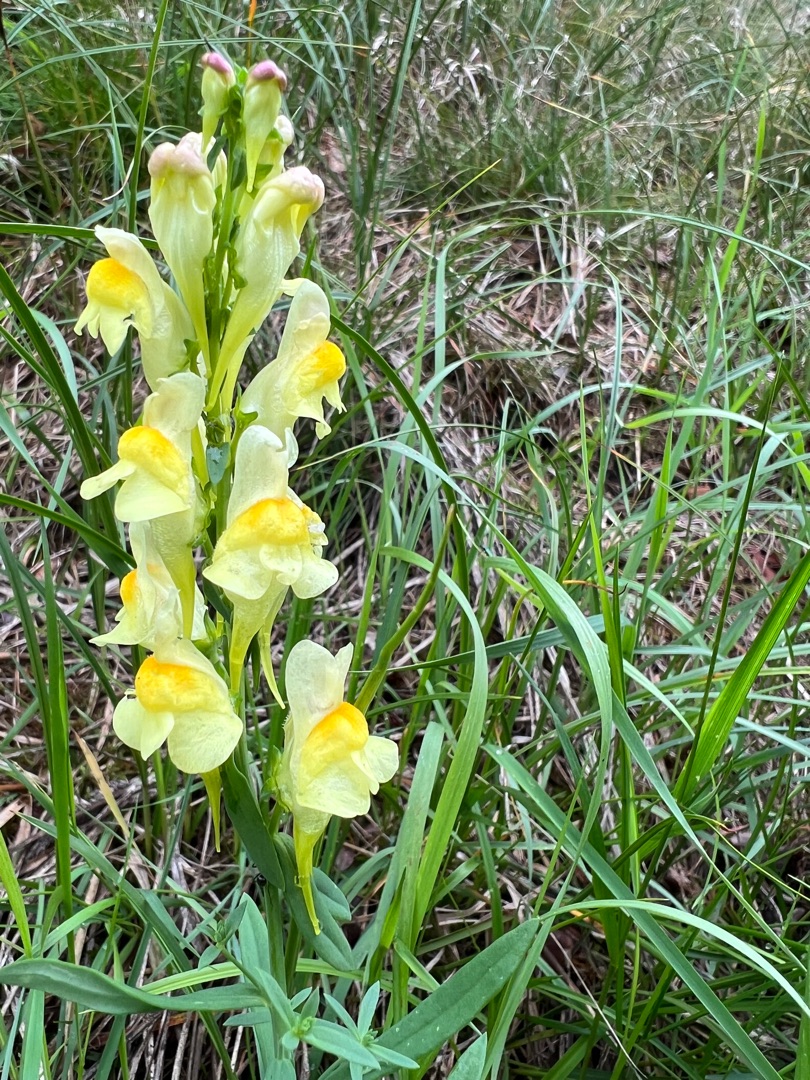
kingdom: Plantae
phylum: Tracheophyta
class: Magnoliopsida
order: Lamiales
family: Plantaginaceae
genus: Linaria
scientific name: Linaria vulgaris
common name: Almindelig torskemund
